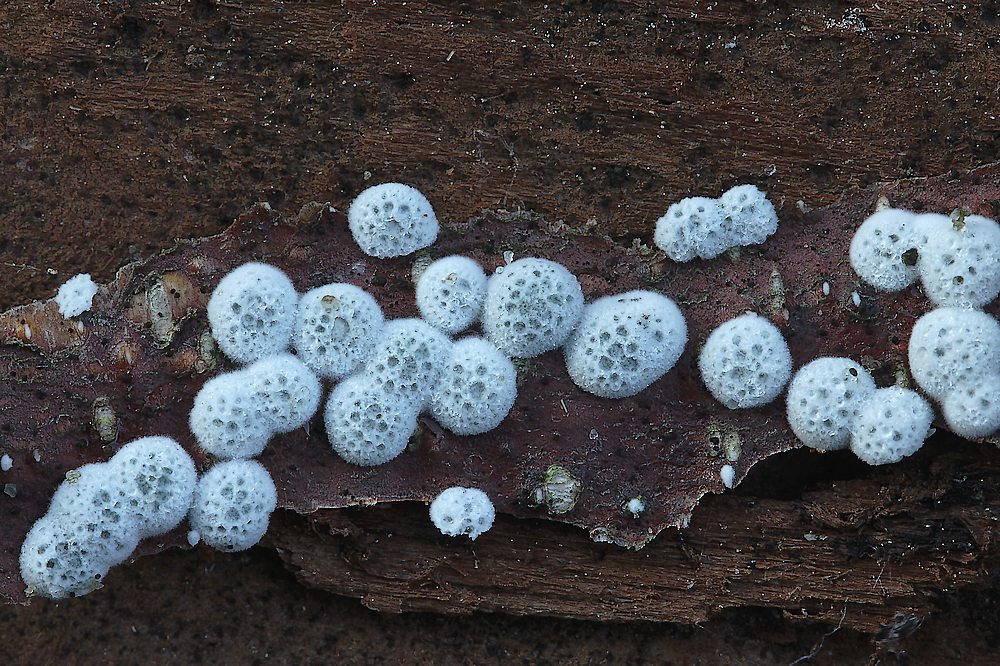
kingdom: Fungi
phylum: Ascomycota
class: Sordariomycetes
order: Hypocreales
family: Hypocreaceae
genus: Trichoderma
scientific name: Trichoderma
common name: kødkerne
